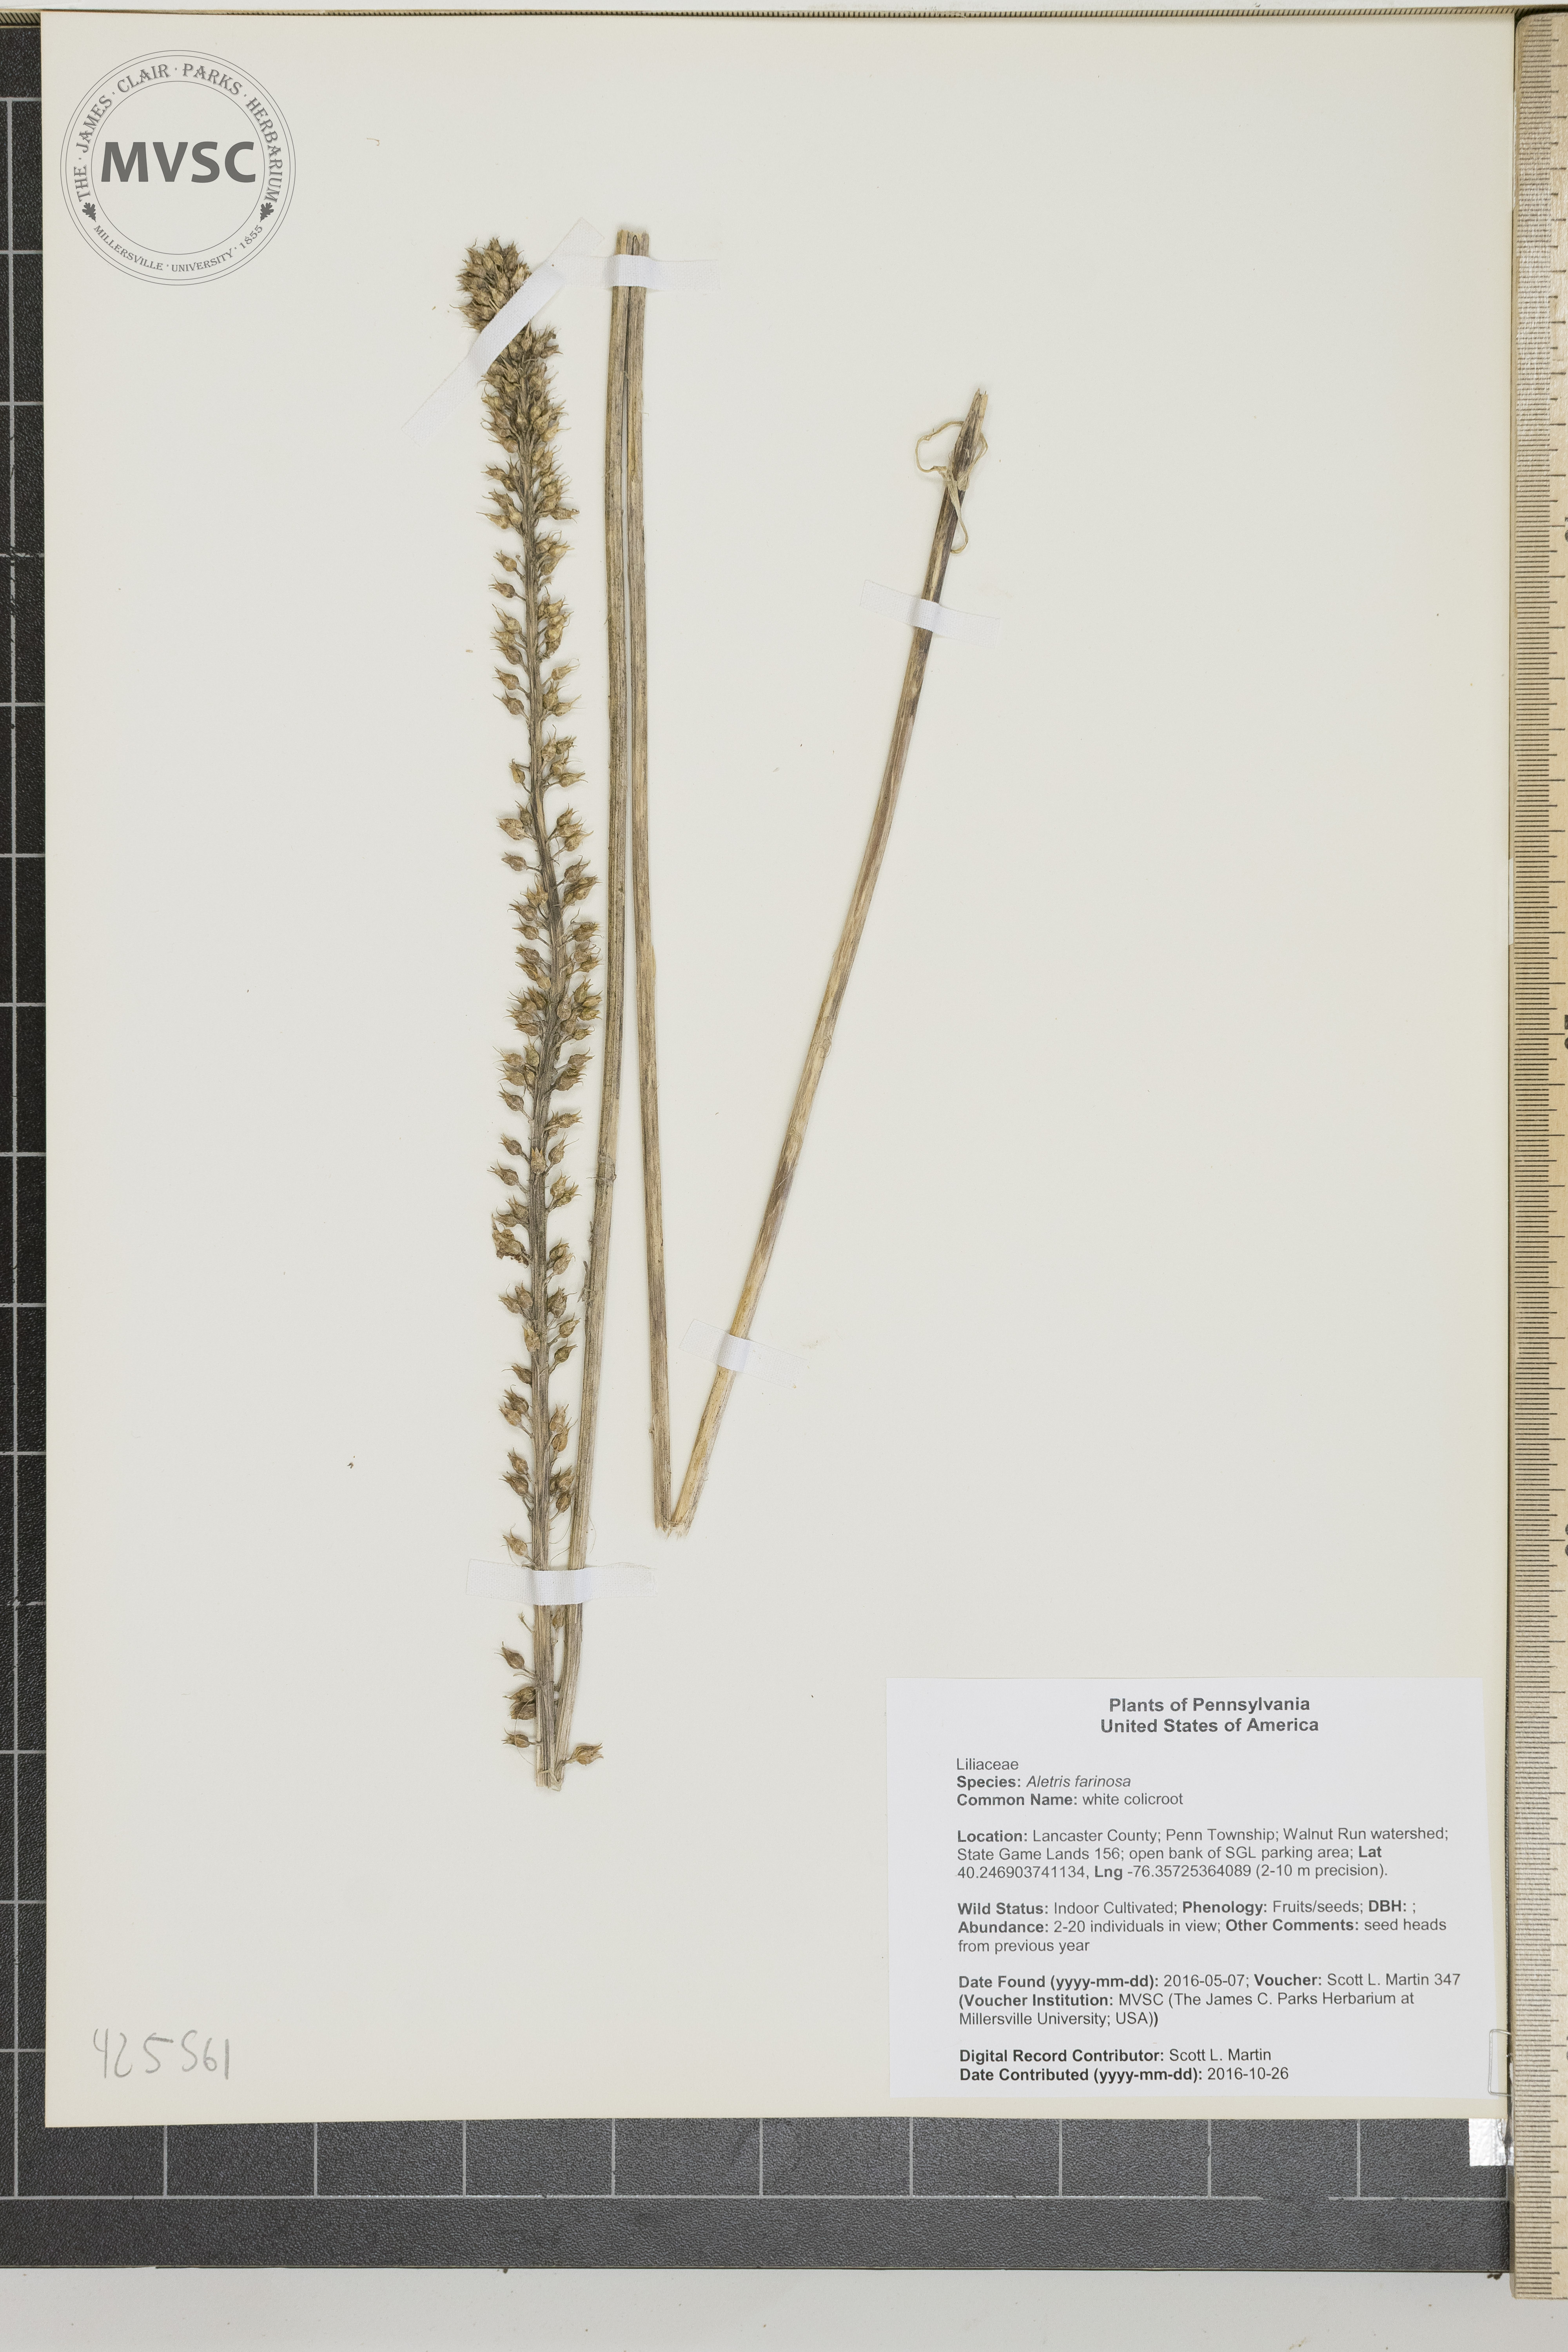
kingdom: Plantae
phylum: Tracheophyta
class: Liliopsida
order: Dioscoreales
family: Nartheciaceae
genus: Aletris
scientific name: Aletris farinosa
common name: white colicroot
